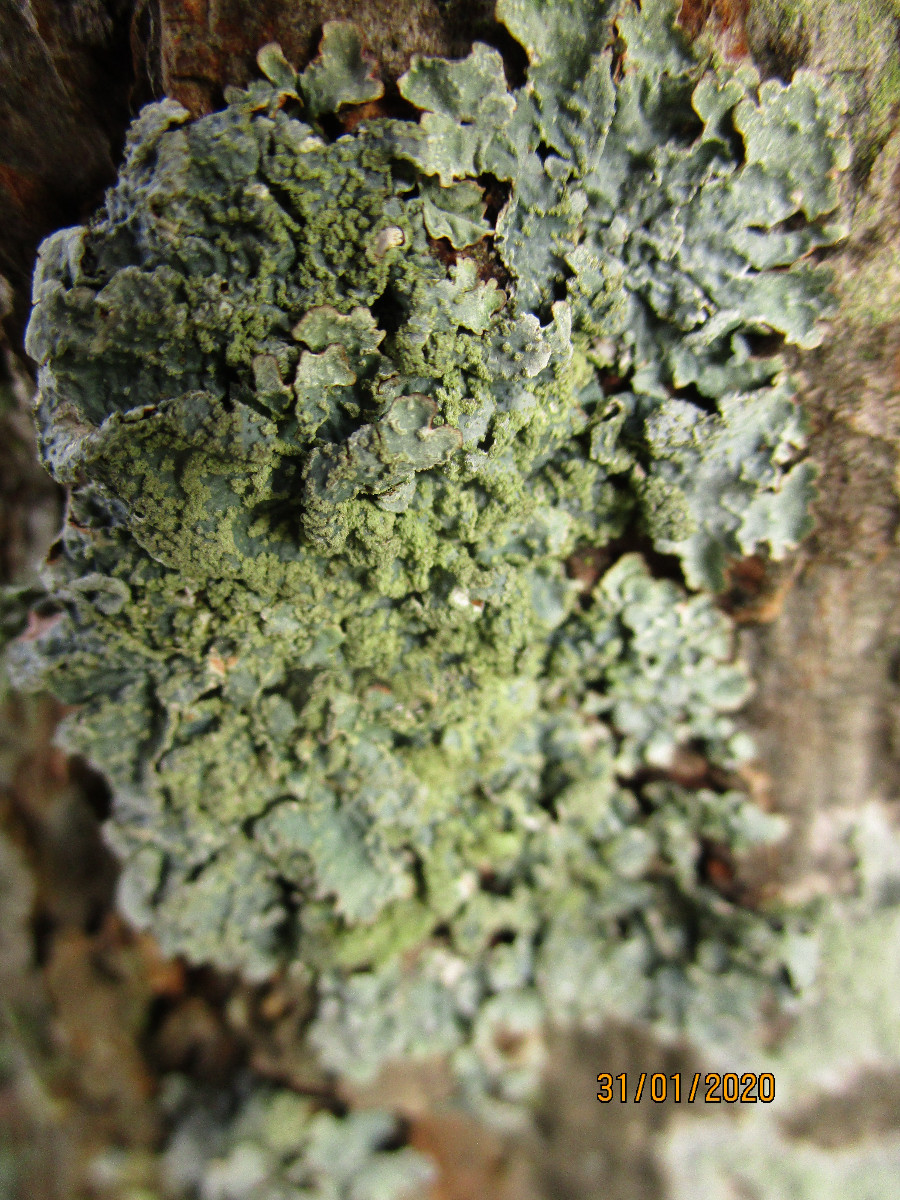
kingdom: Fungi
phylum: Ascomycota
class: Lecanoromycetes
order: Lecanorales
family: Parmeliaceae
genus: Parmelia
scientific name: Parmelia sulcata
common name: rynket skållav
